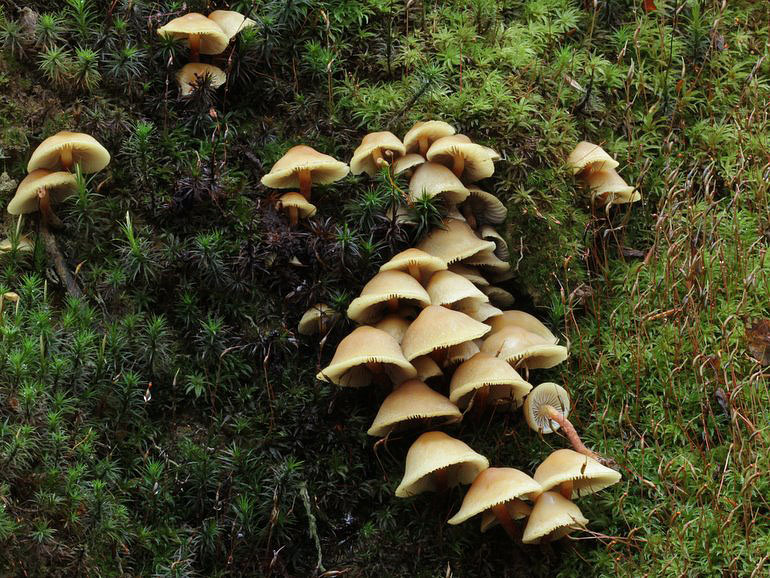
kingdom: Fungi
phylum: Basidiomycota
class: Agaricomycetes
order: Agaricales
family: Strophariaceae
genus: Hypholoma
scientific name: Hypholoma capnoides
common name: gran-svovlhat
